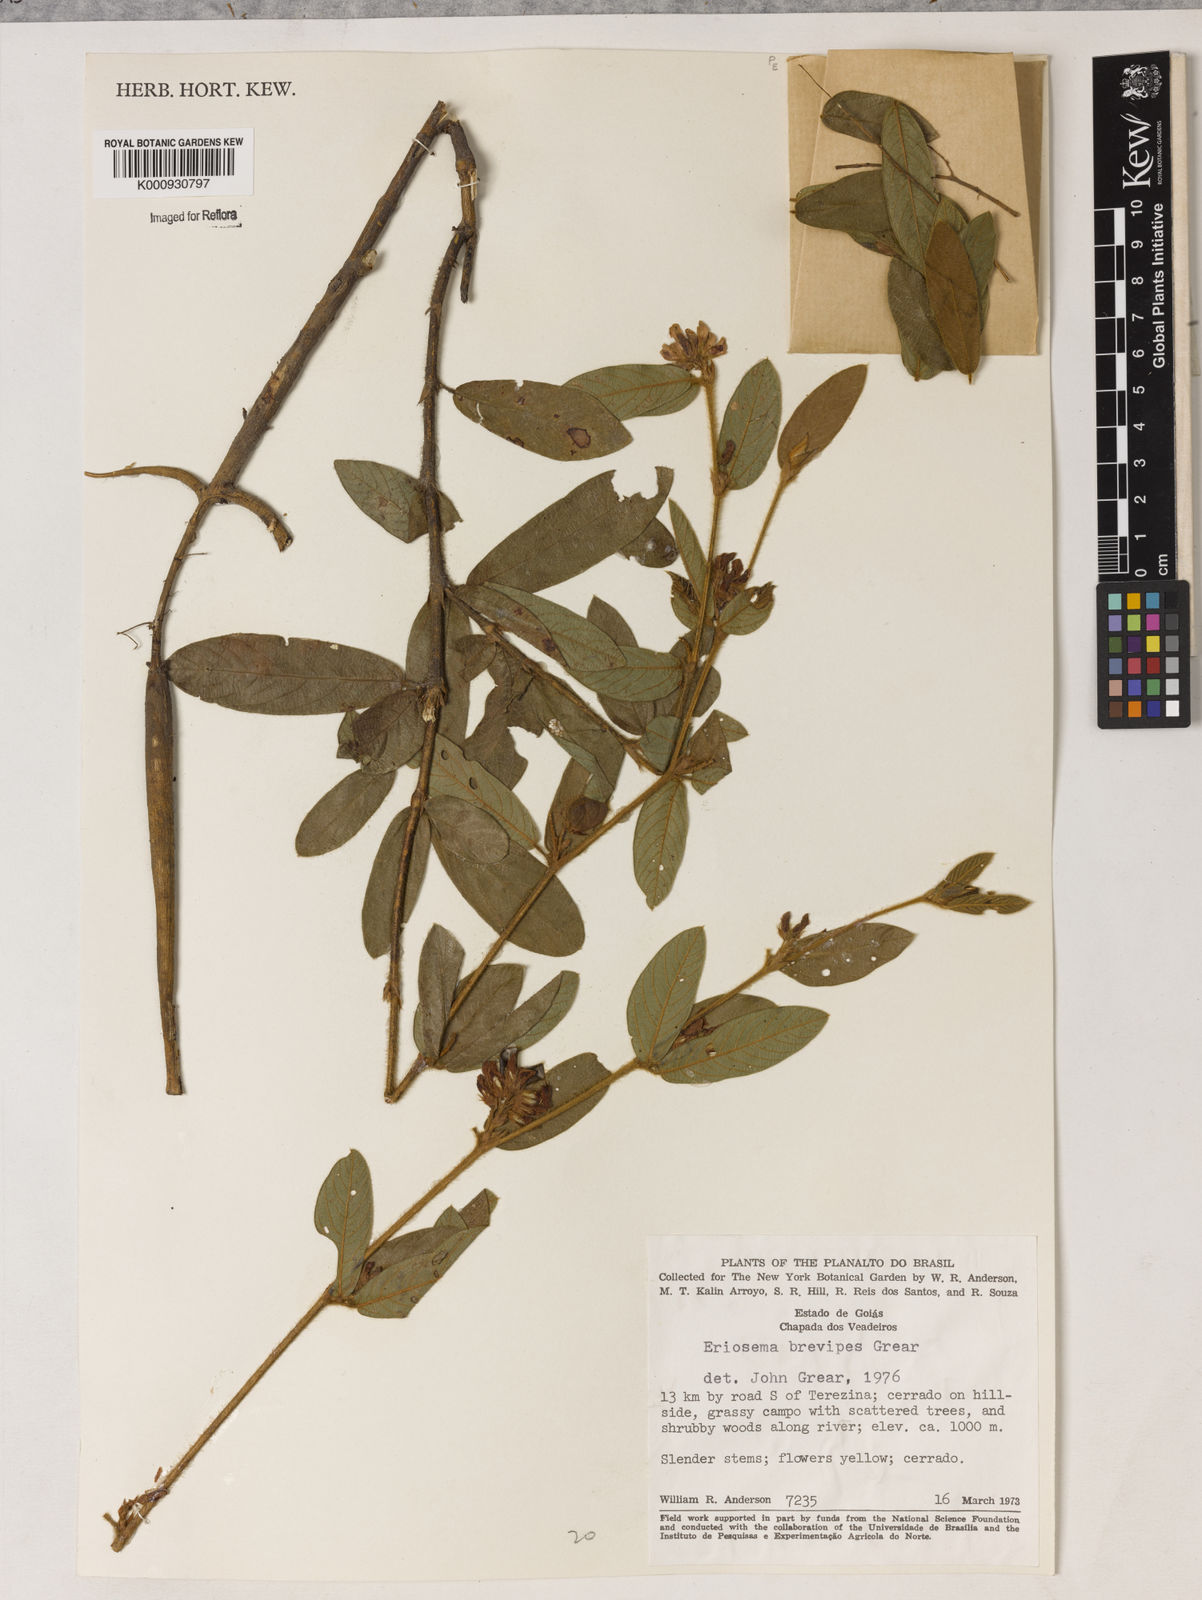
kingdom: Plantae
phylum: Tracheophyta
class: Magnoliopsida
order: Fabales
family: Fabaceae
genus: Eriosema
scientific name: Eriosema brevipes
